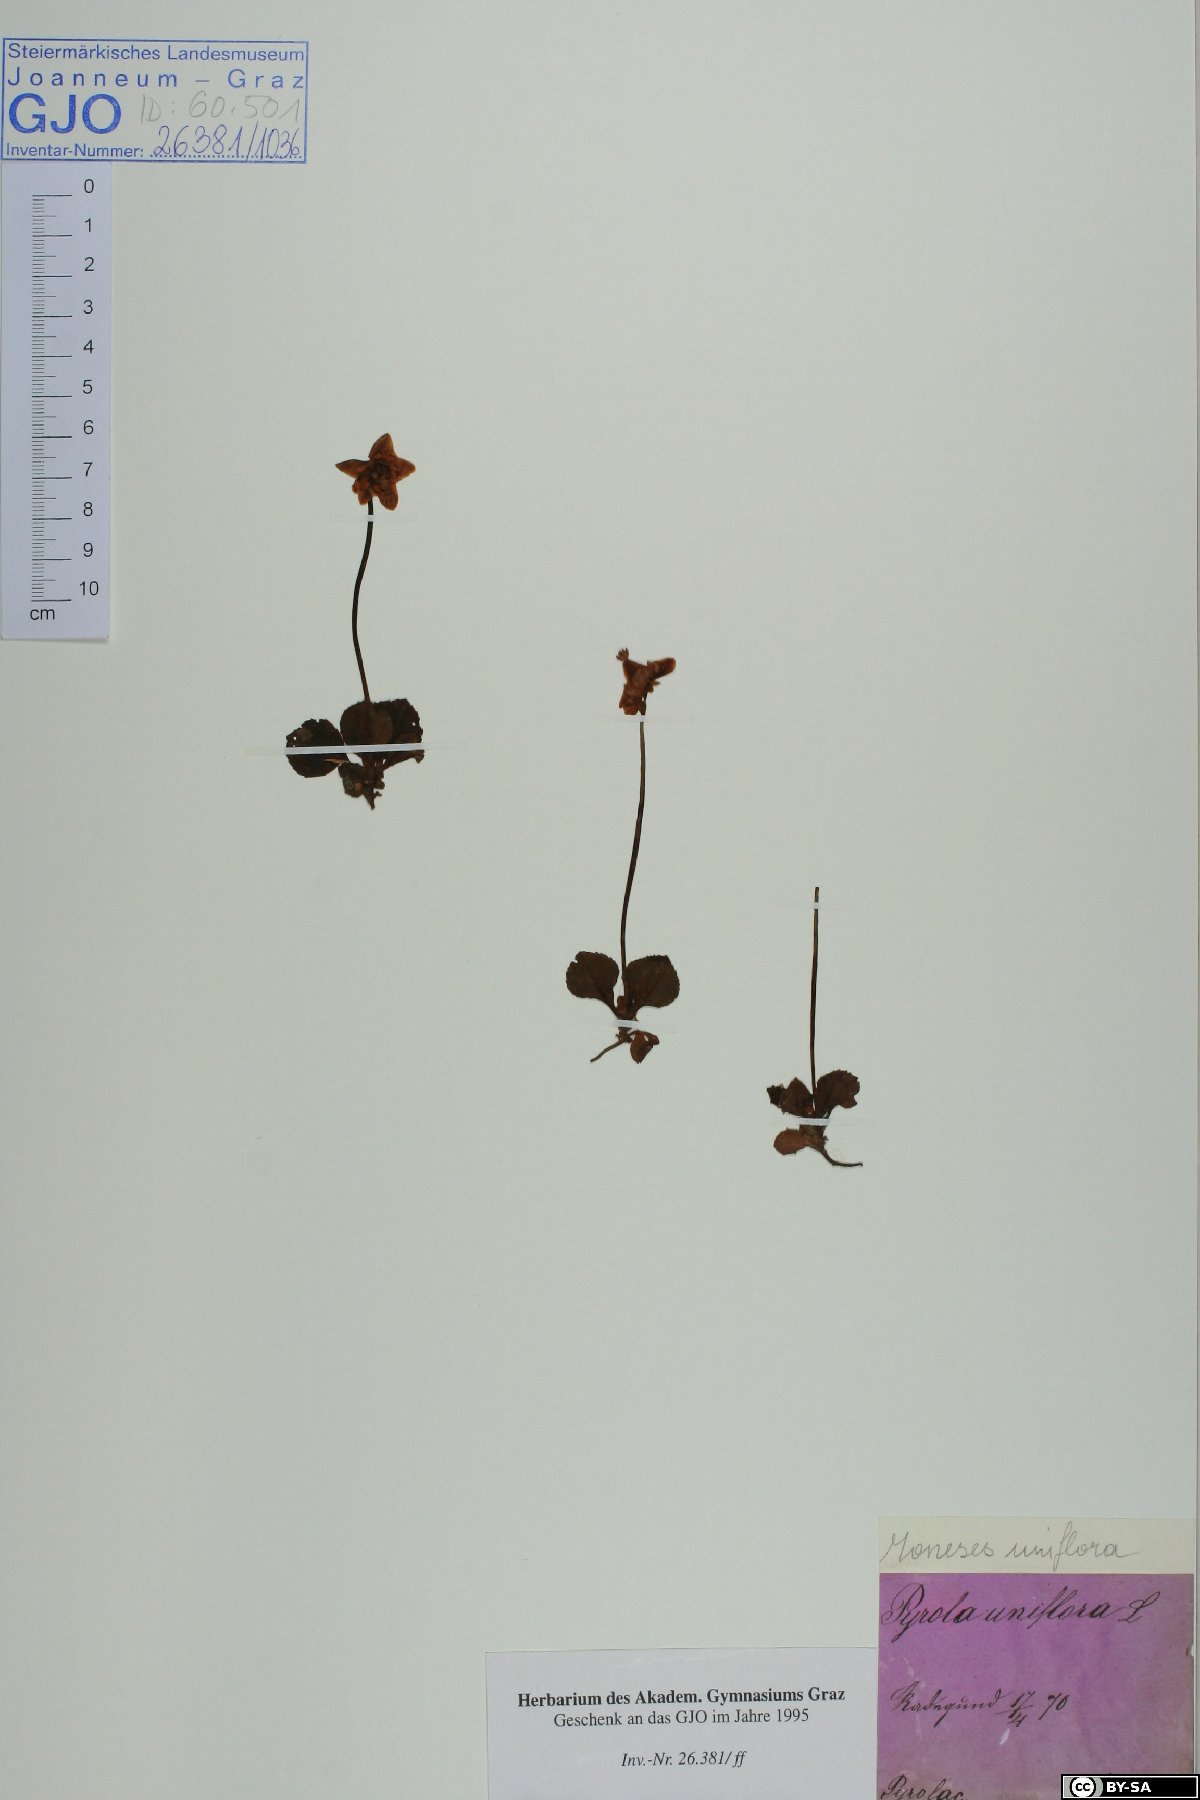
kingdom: Plantae
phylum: Tracheophyta
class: Magnoliopsida
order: Ericales
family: Ericaceae
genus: Moneses
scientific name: Moneses uniflora
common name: One-flowered wintergreen
